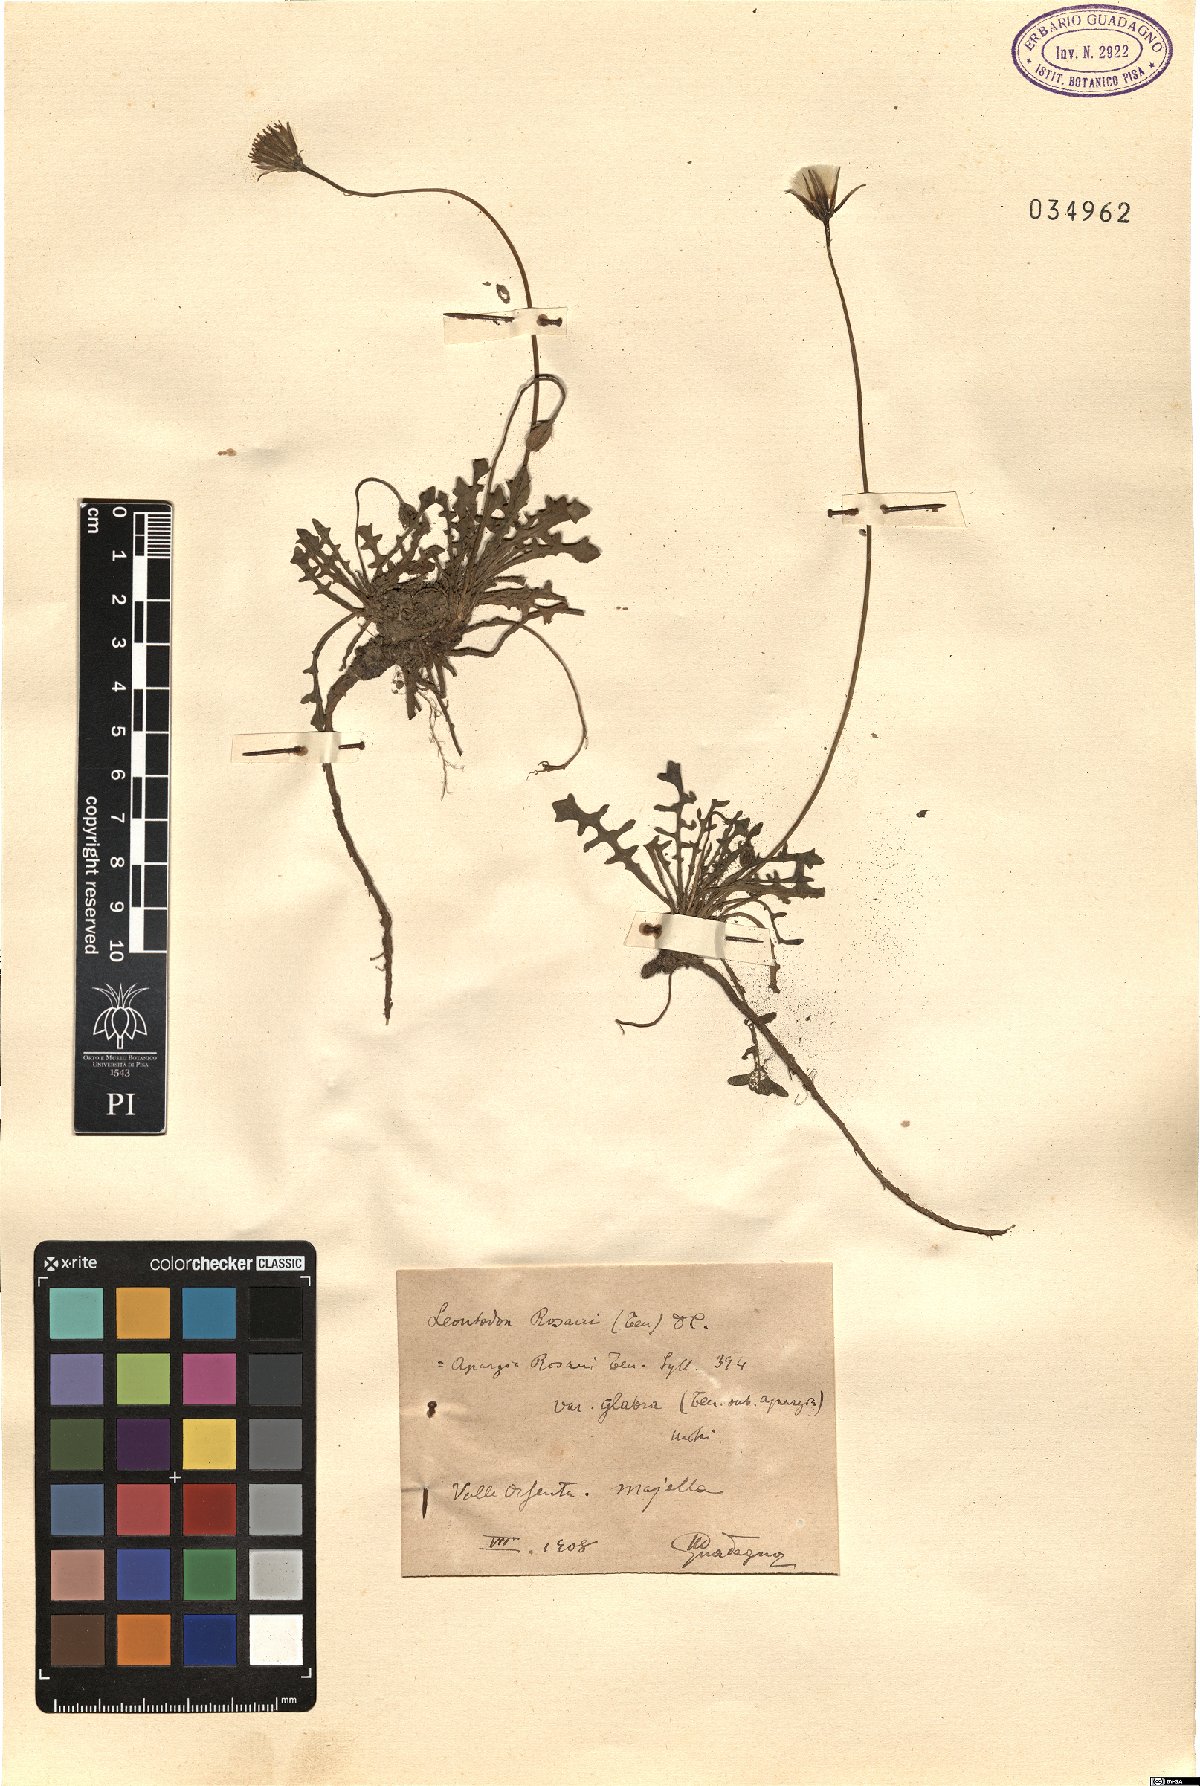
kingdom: Plantae
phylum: Tracheophyta
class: Magnoliopsida
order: Asterales
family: Asteraceae
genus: Leontodon
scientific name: Leontodon rosanoi
